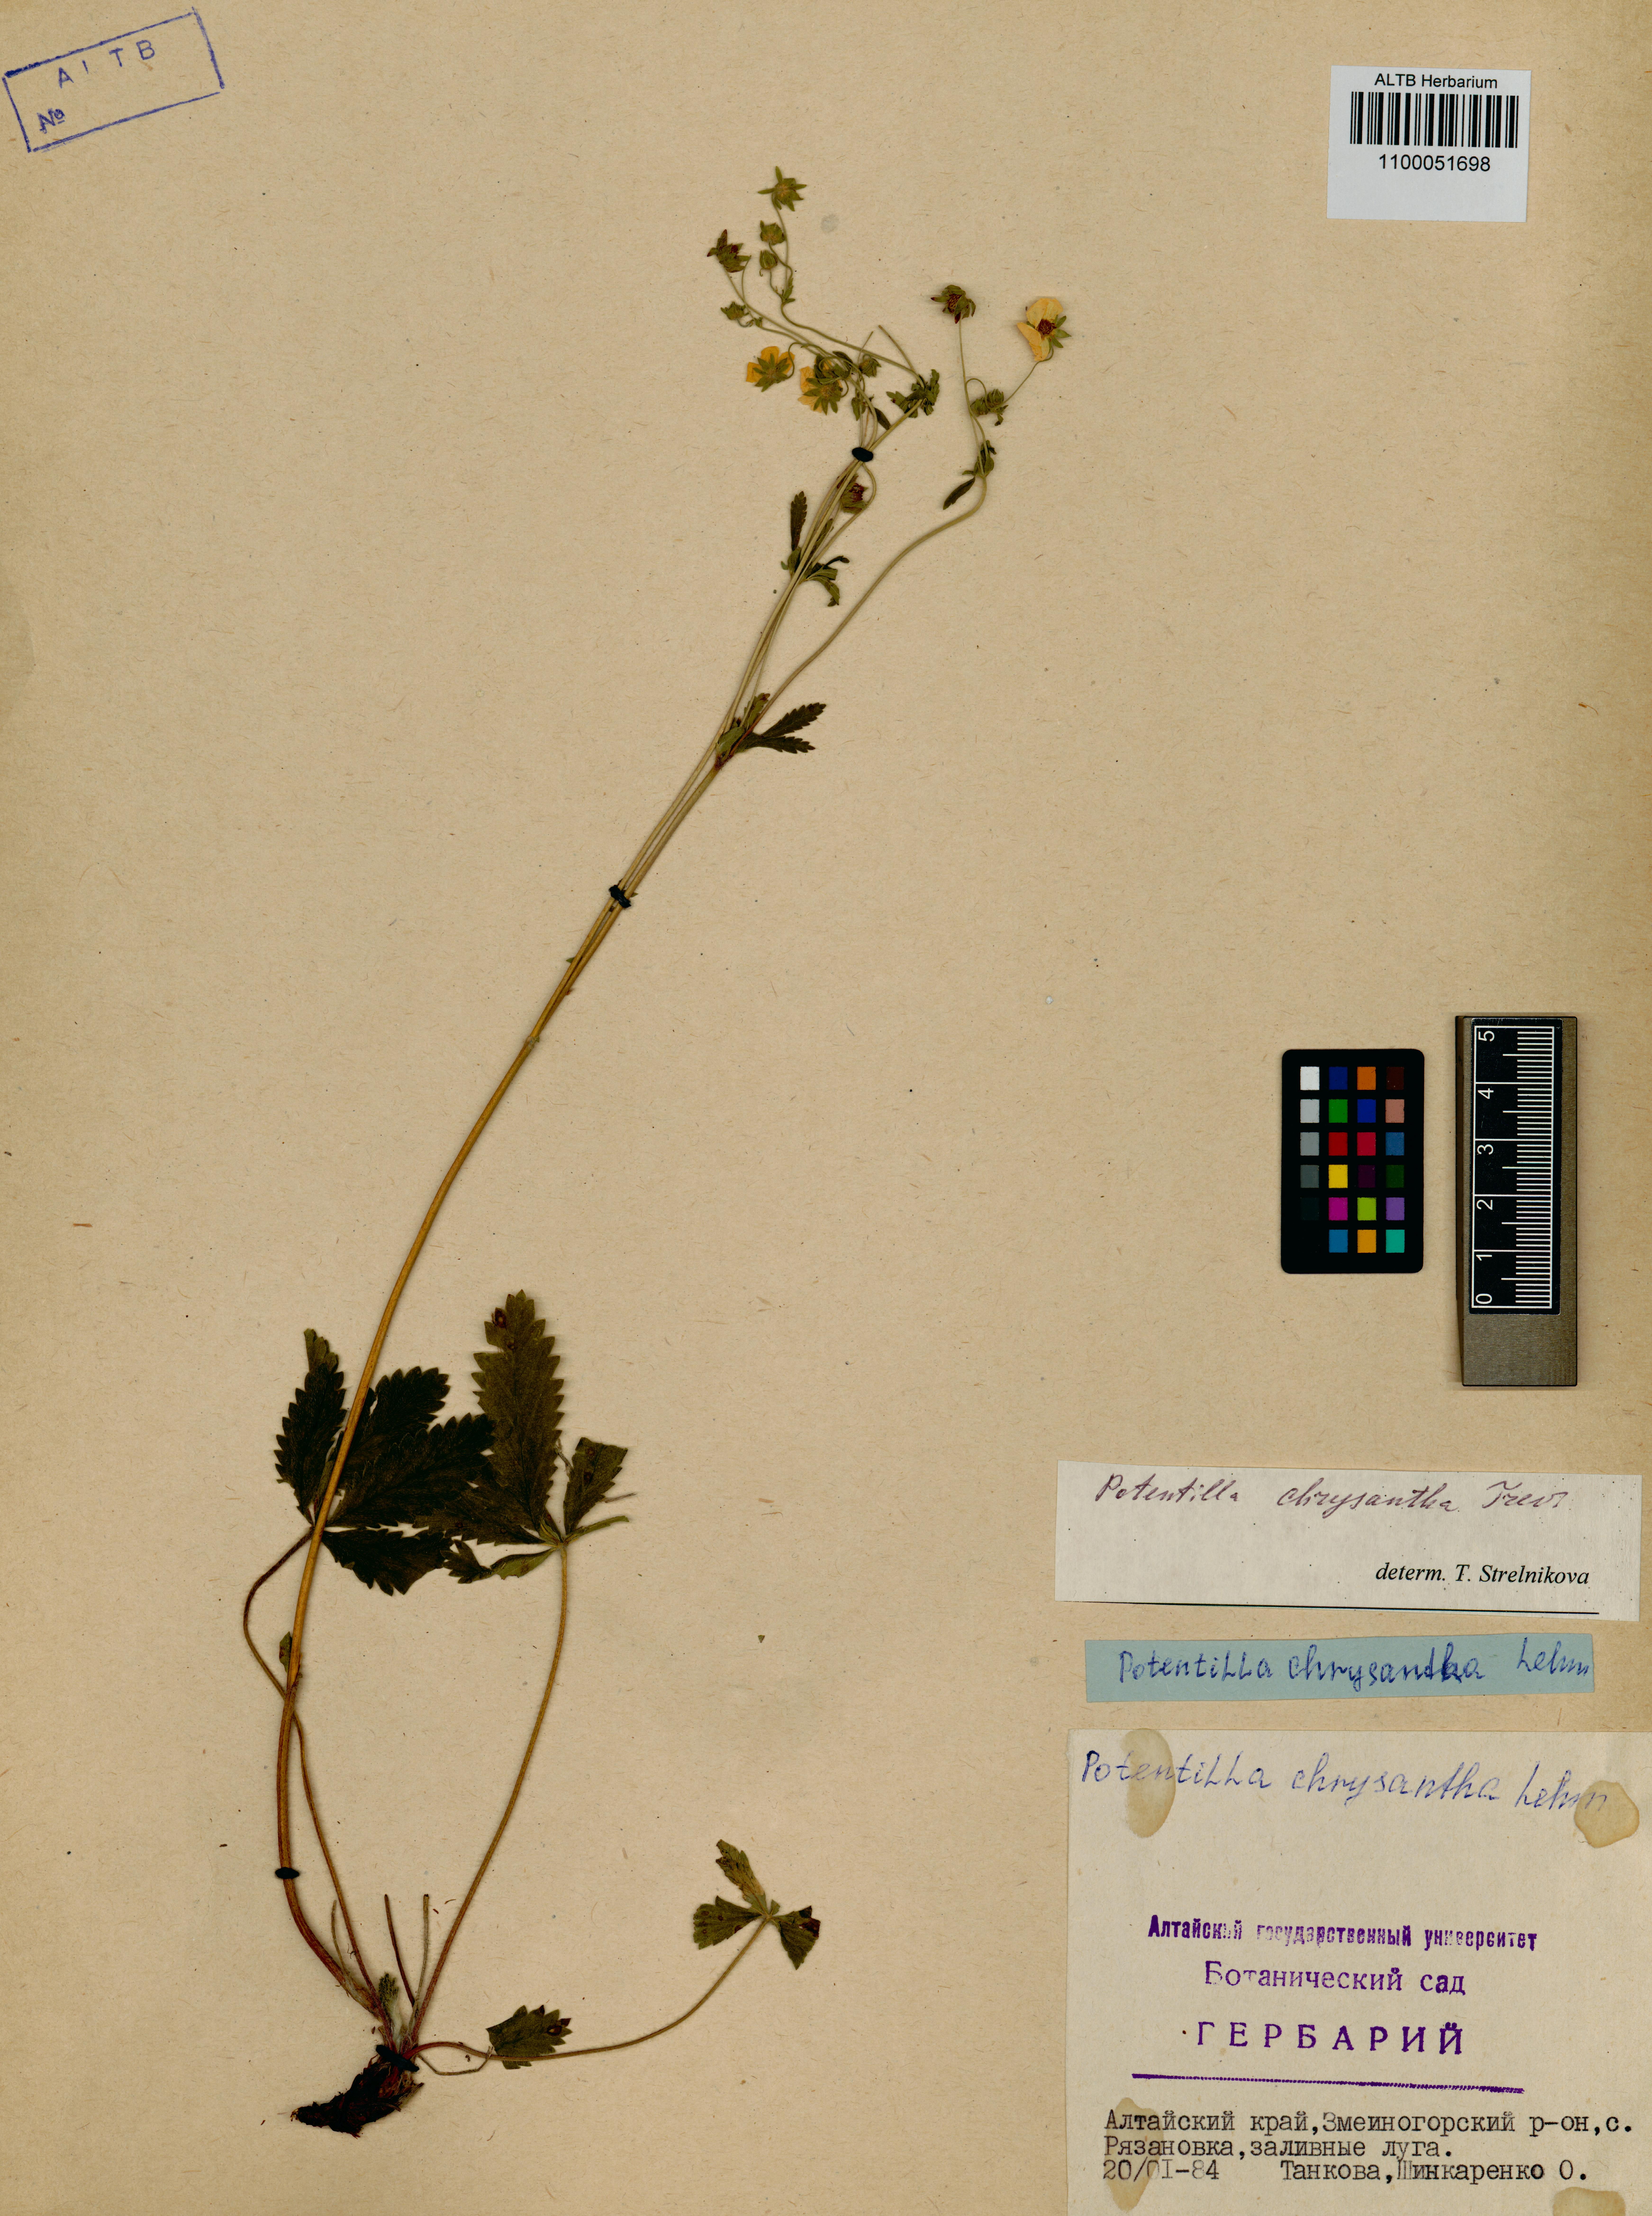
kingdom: Plantae
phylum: Tracheophyta
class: Magnoliopsida
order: Rosales
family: Rosaceae
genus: Potentilla
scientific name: Potentilla chrysantha
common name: Thuringian cinquefoil
